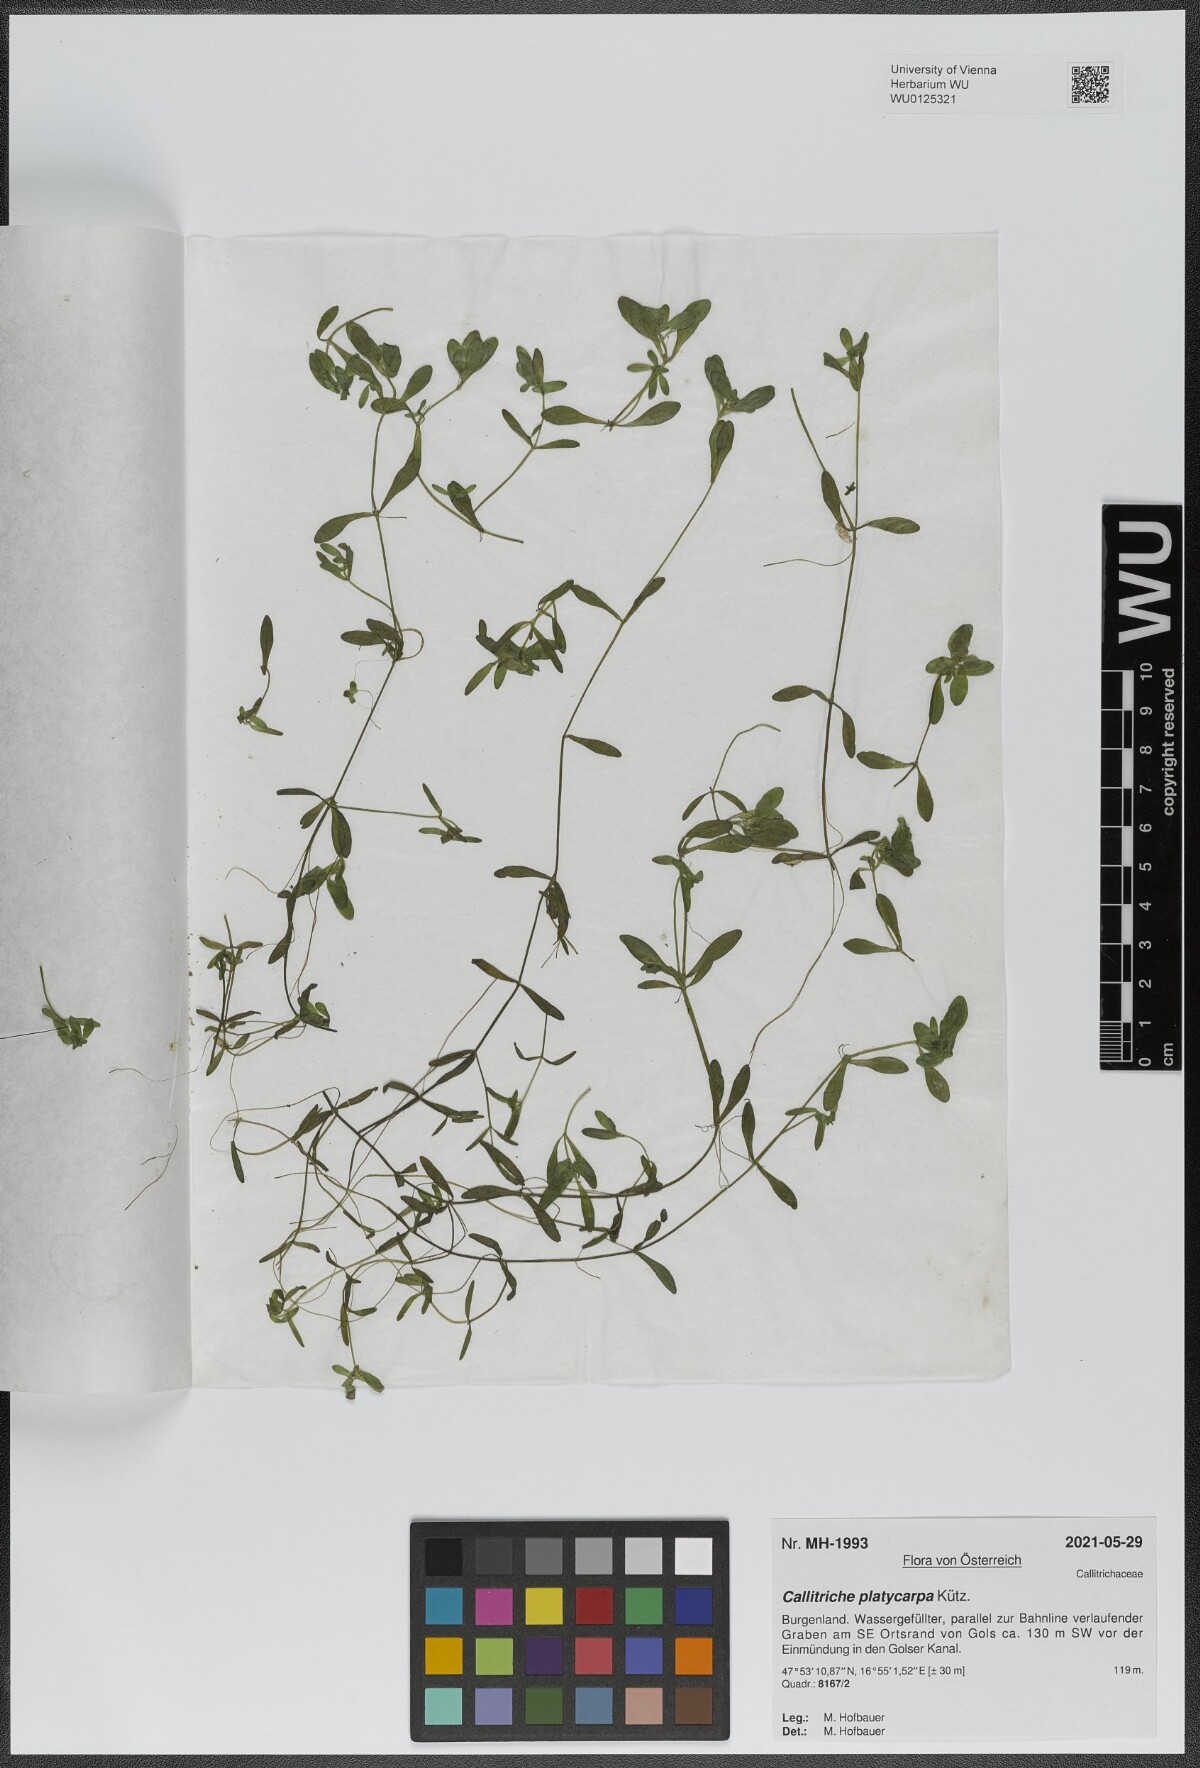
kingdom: Plantae
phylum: Tracheophyta
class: Magnoliopsida
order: Lamiales
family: Plantaginaceae
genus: Callitriche
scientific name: Callitriche platycarpa
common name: Various-leaved water-starwort
